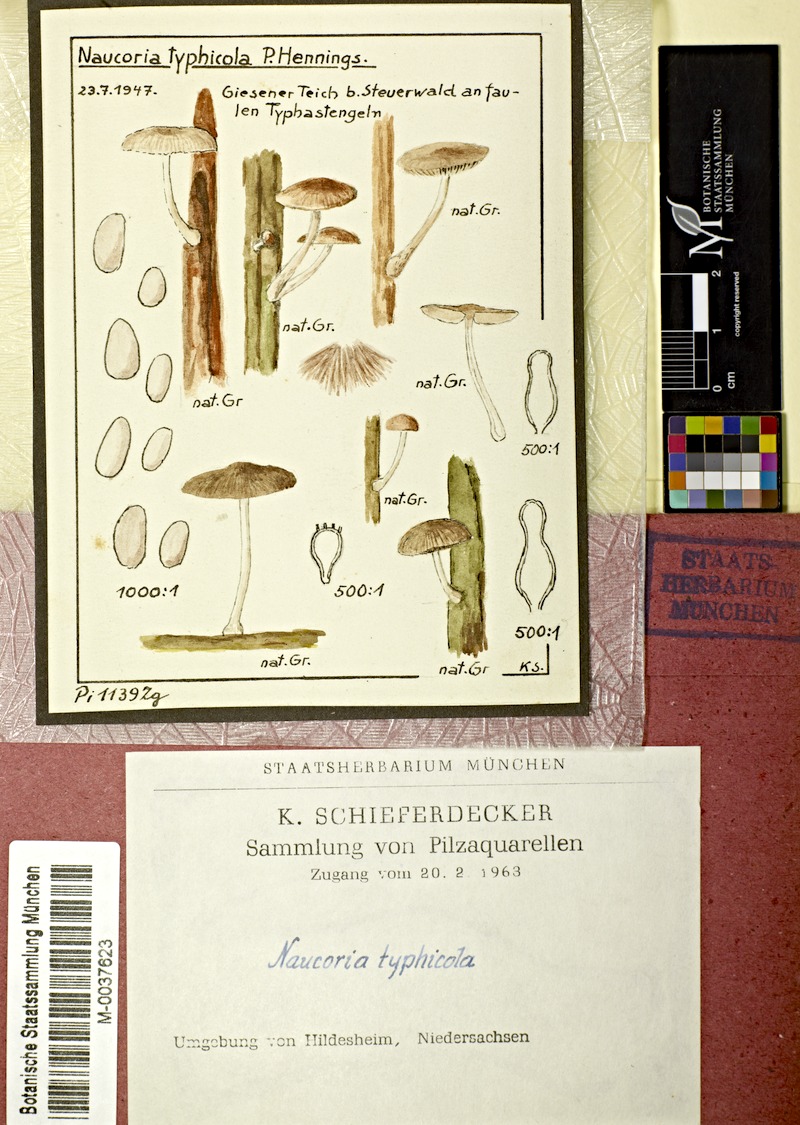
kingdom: Plantae
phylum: Tracheophyta
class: Liliopsida
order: Poales
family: Typhaceae
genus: Typha
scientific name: Typha
